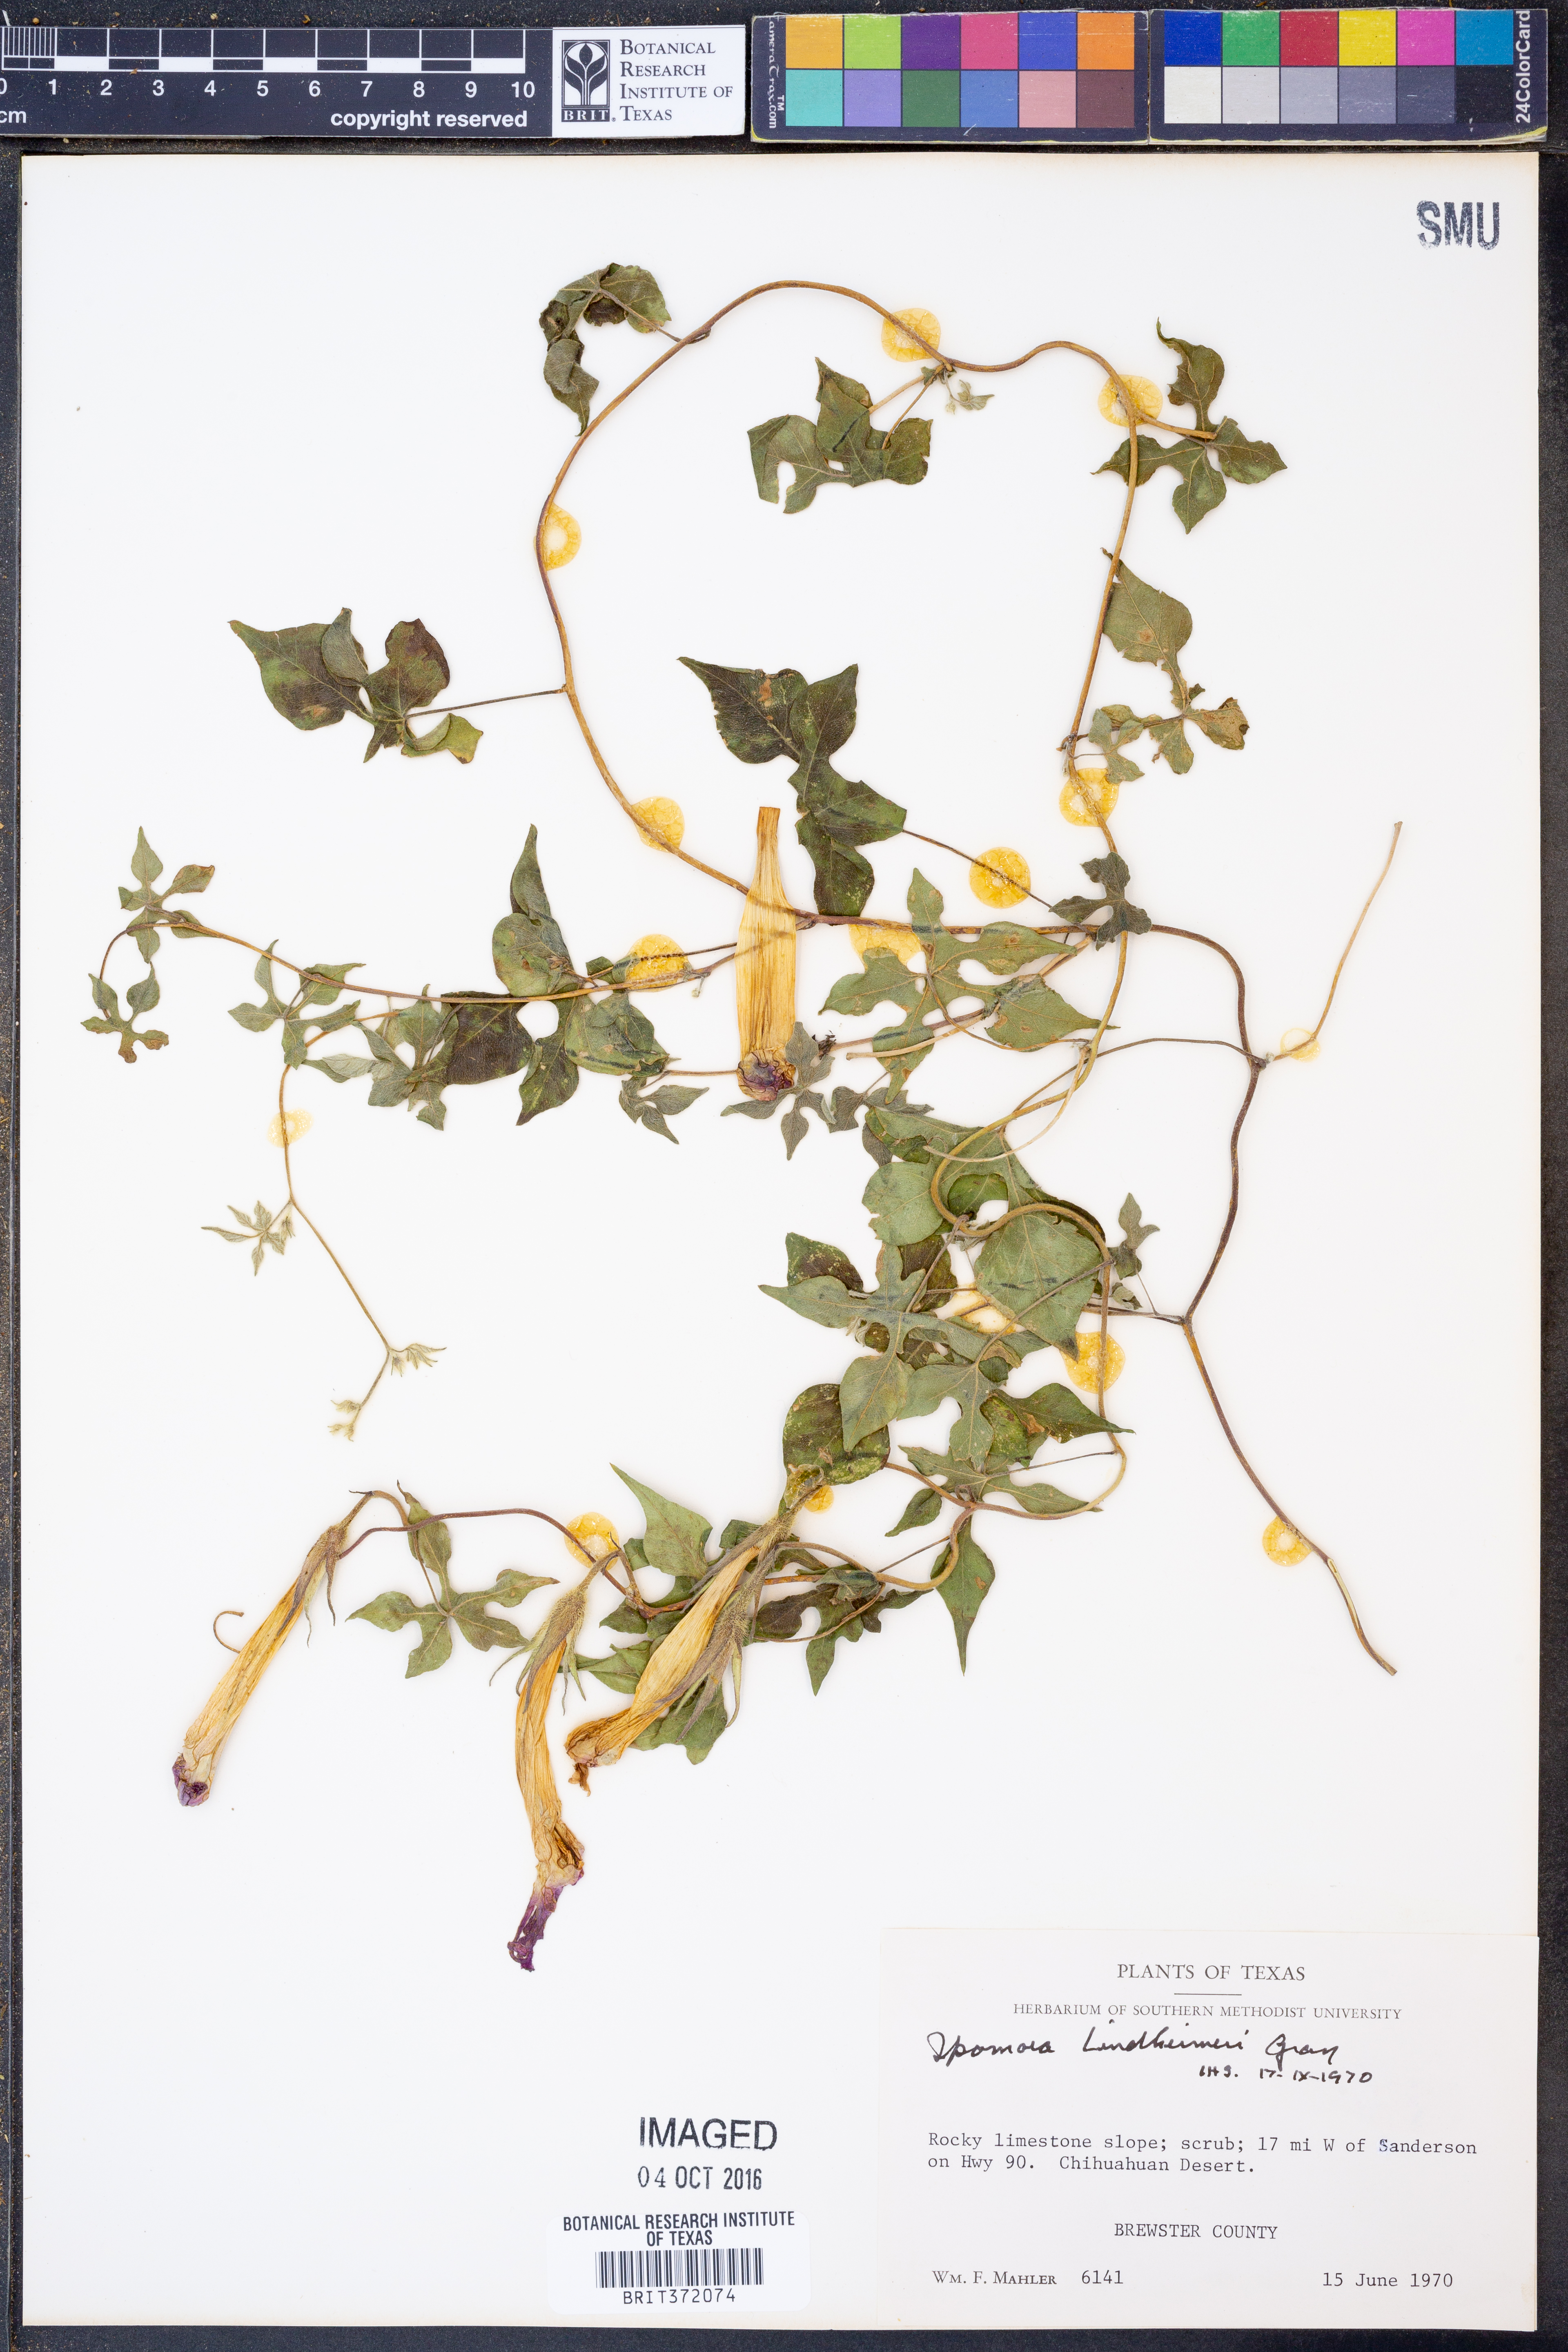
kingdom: Plantae
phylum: Tracheophyta
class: Magnoliopsida
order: Solanales
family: Convolvulaceae
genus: Ipomoea
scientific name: Ipomoea lindheimeri
